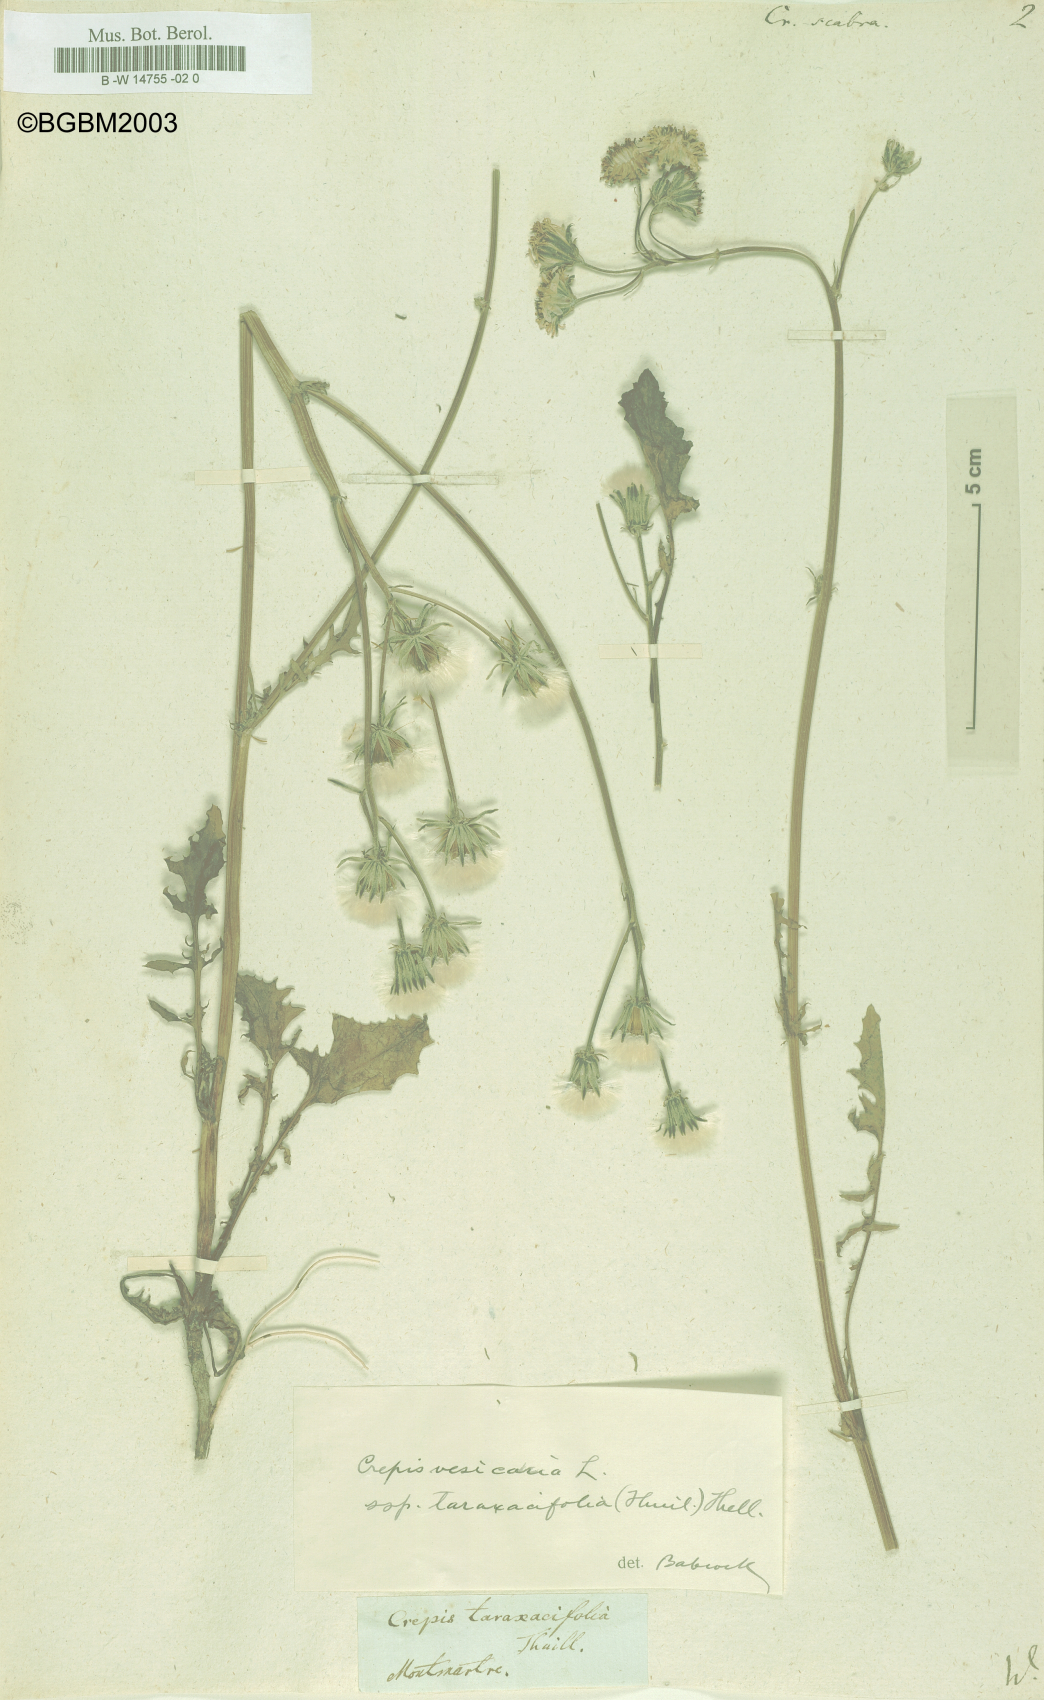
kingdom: Plantae
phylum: Tracheophyta
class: Magnoliopsida
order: Asterales
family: Asteraceae
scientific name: Asteraceae
